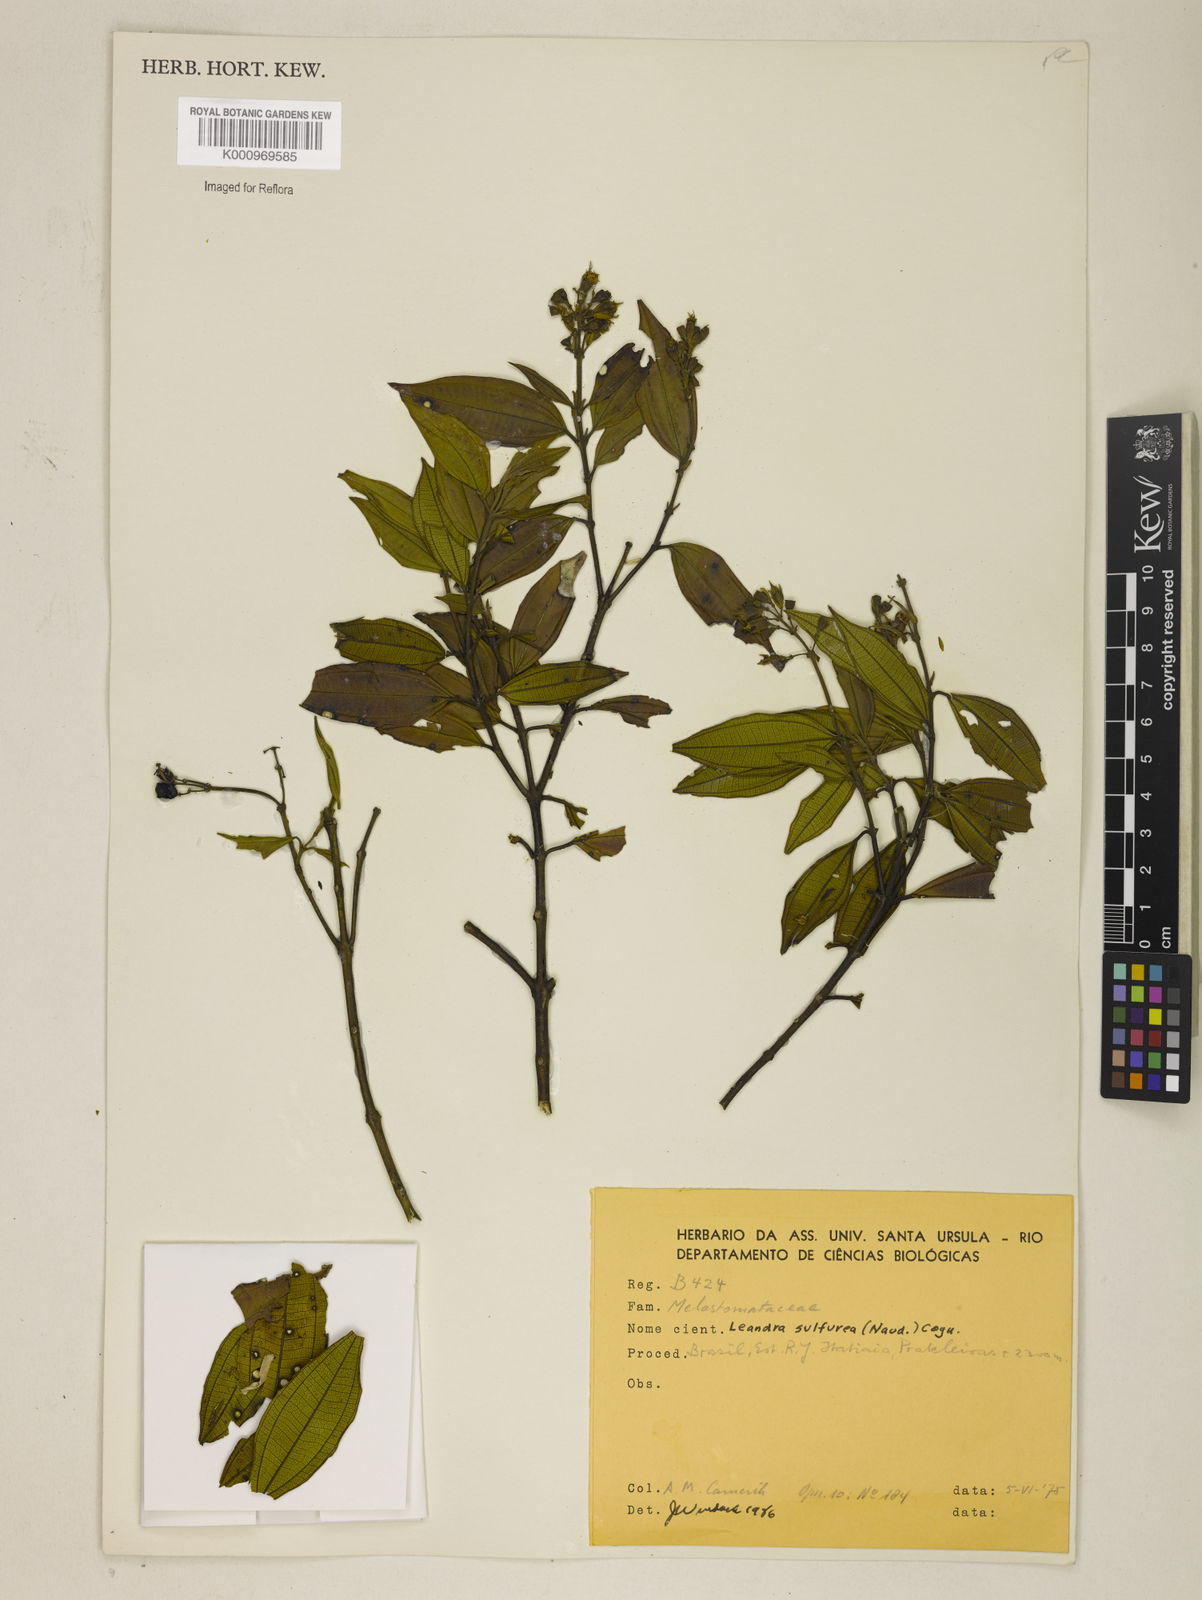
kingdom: Plantae
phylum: Tracheophyta
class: Magnoliopsida
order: Myrtales
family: Melastomataceae
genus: Miconia
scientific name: Miconia sulfurea
